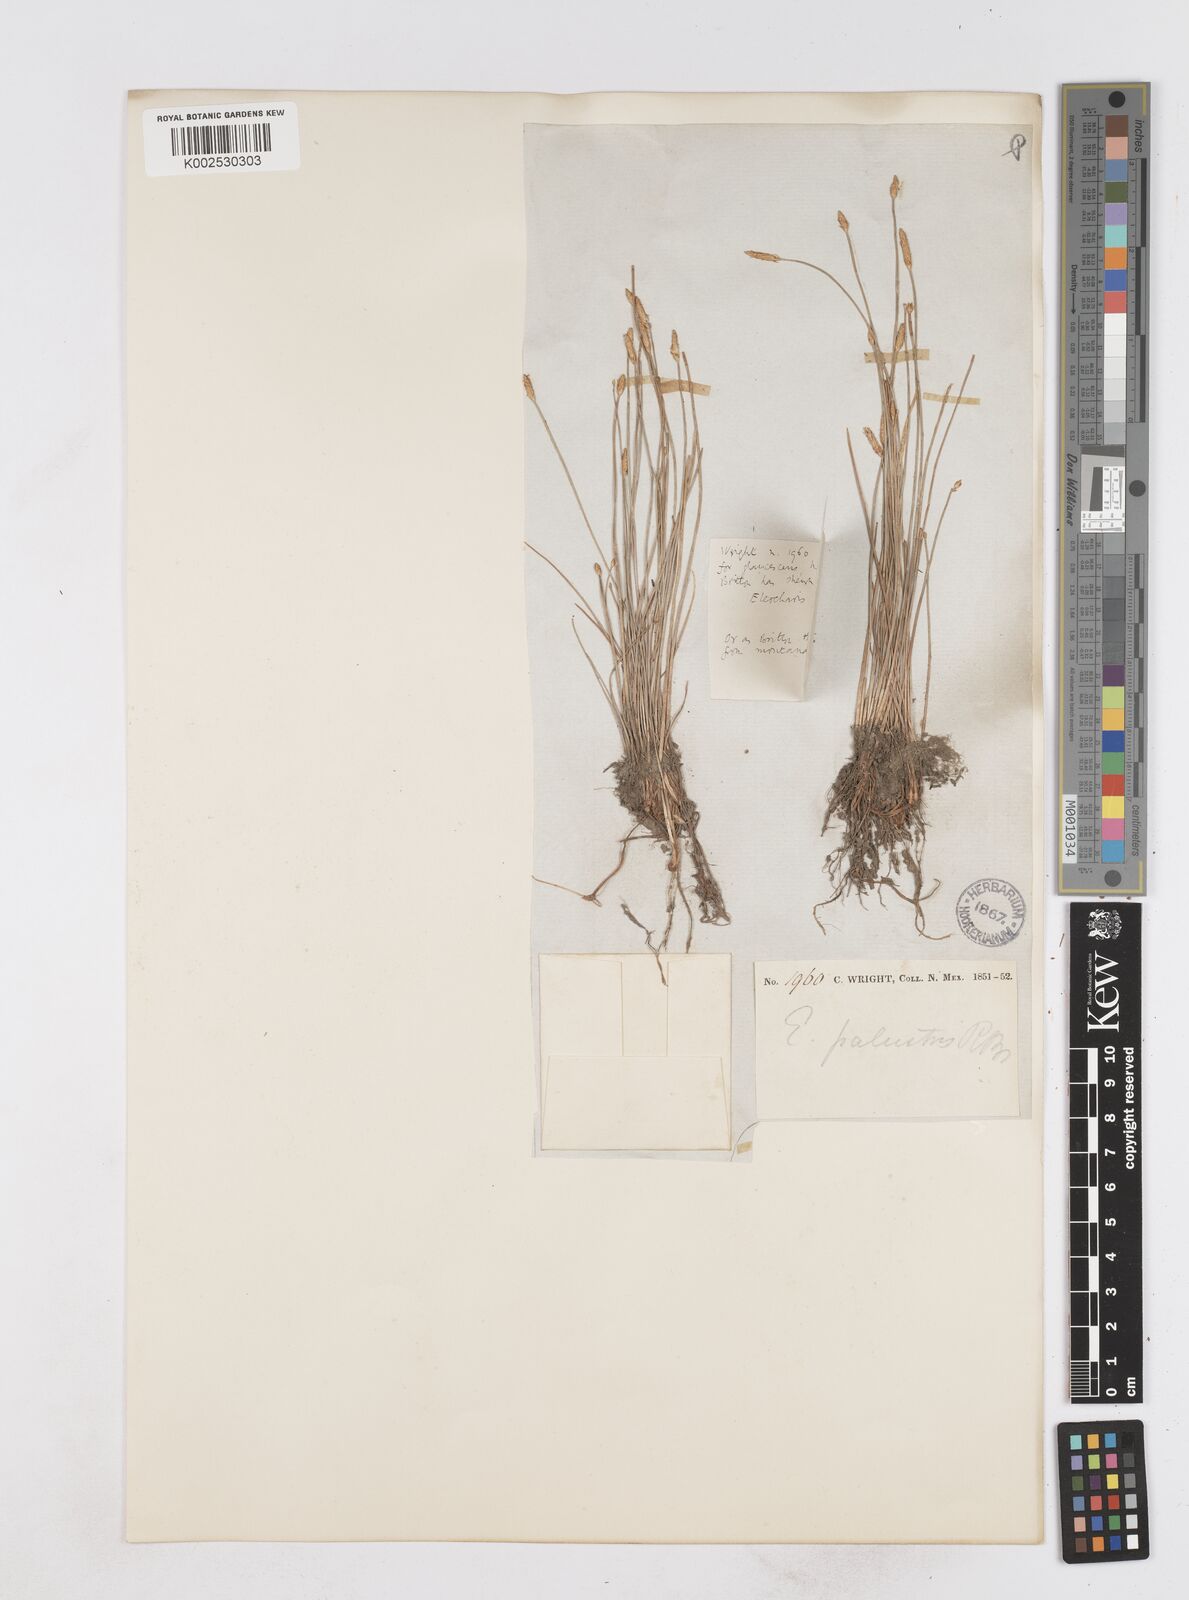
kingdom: Plantae
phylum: Tracheophyta
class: Liliopsida
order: Poales
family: Cyperaceae
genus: Eleocharis
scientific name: Eleocharis montana
